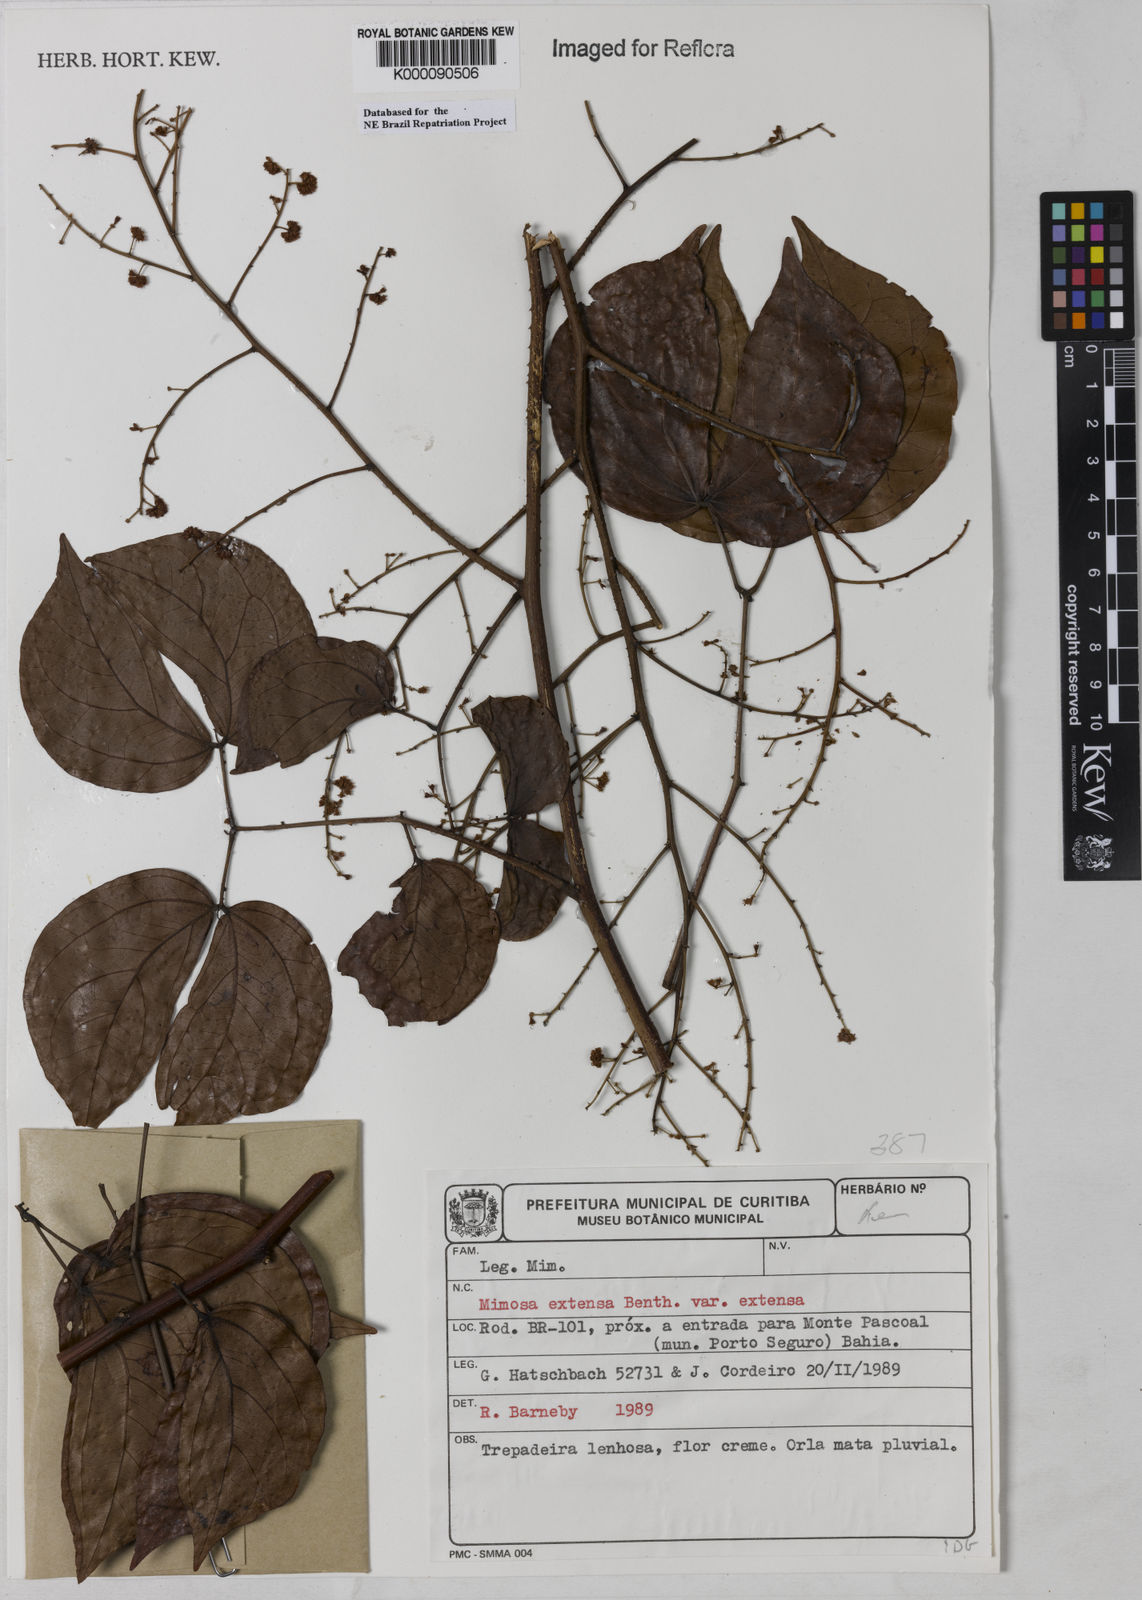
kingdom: Plantae
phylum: Tracheophyta
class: Magnoliopsida
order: Fabales
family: Fabaceae
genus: Mimosa
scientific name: Mimosa extensa
